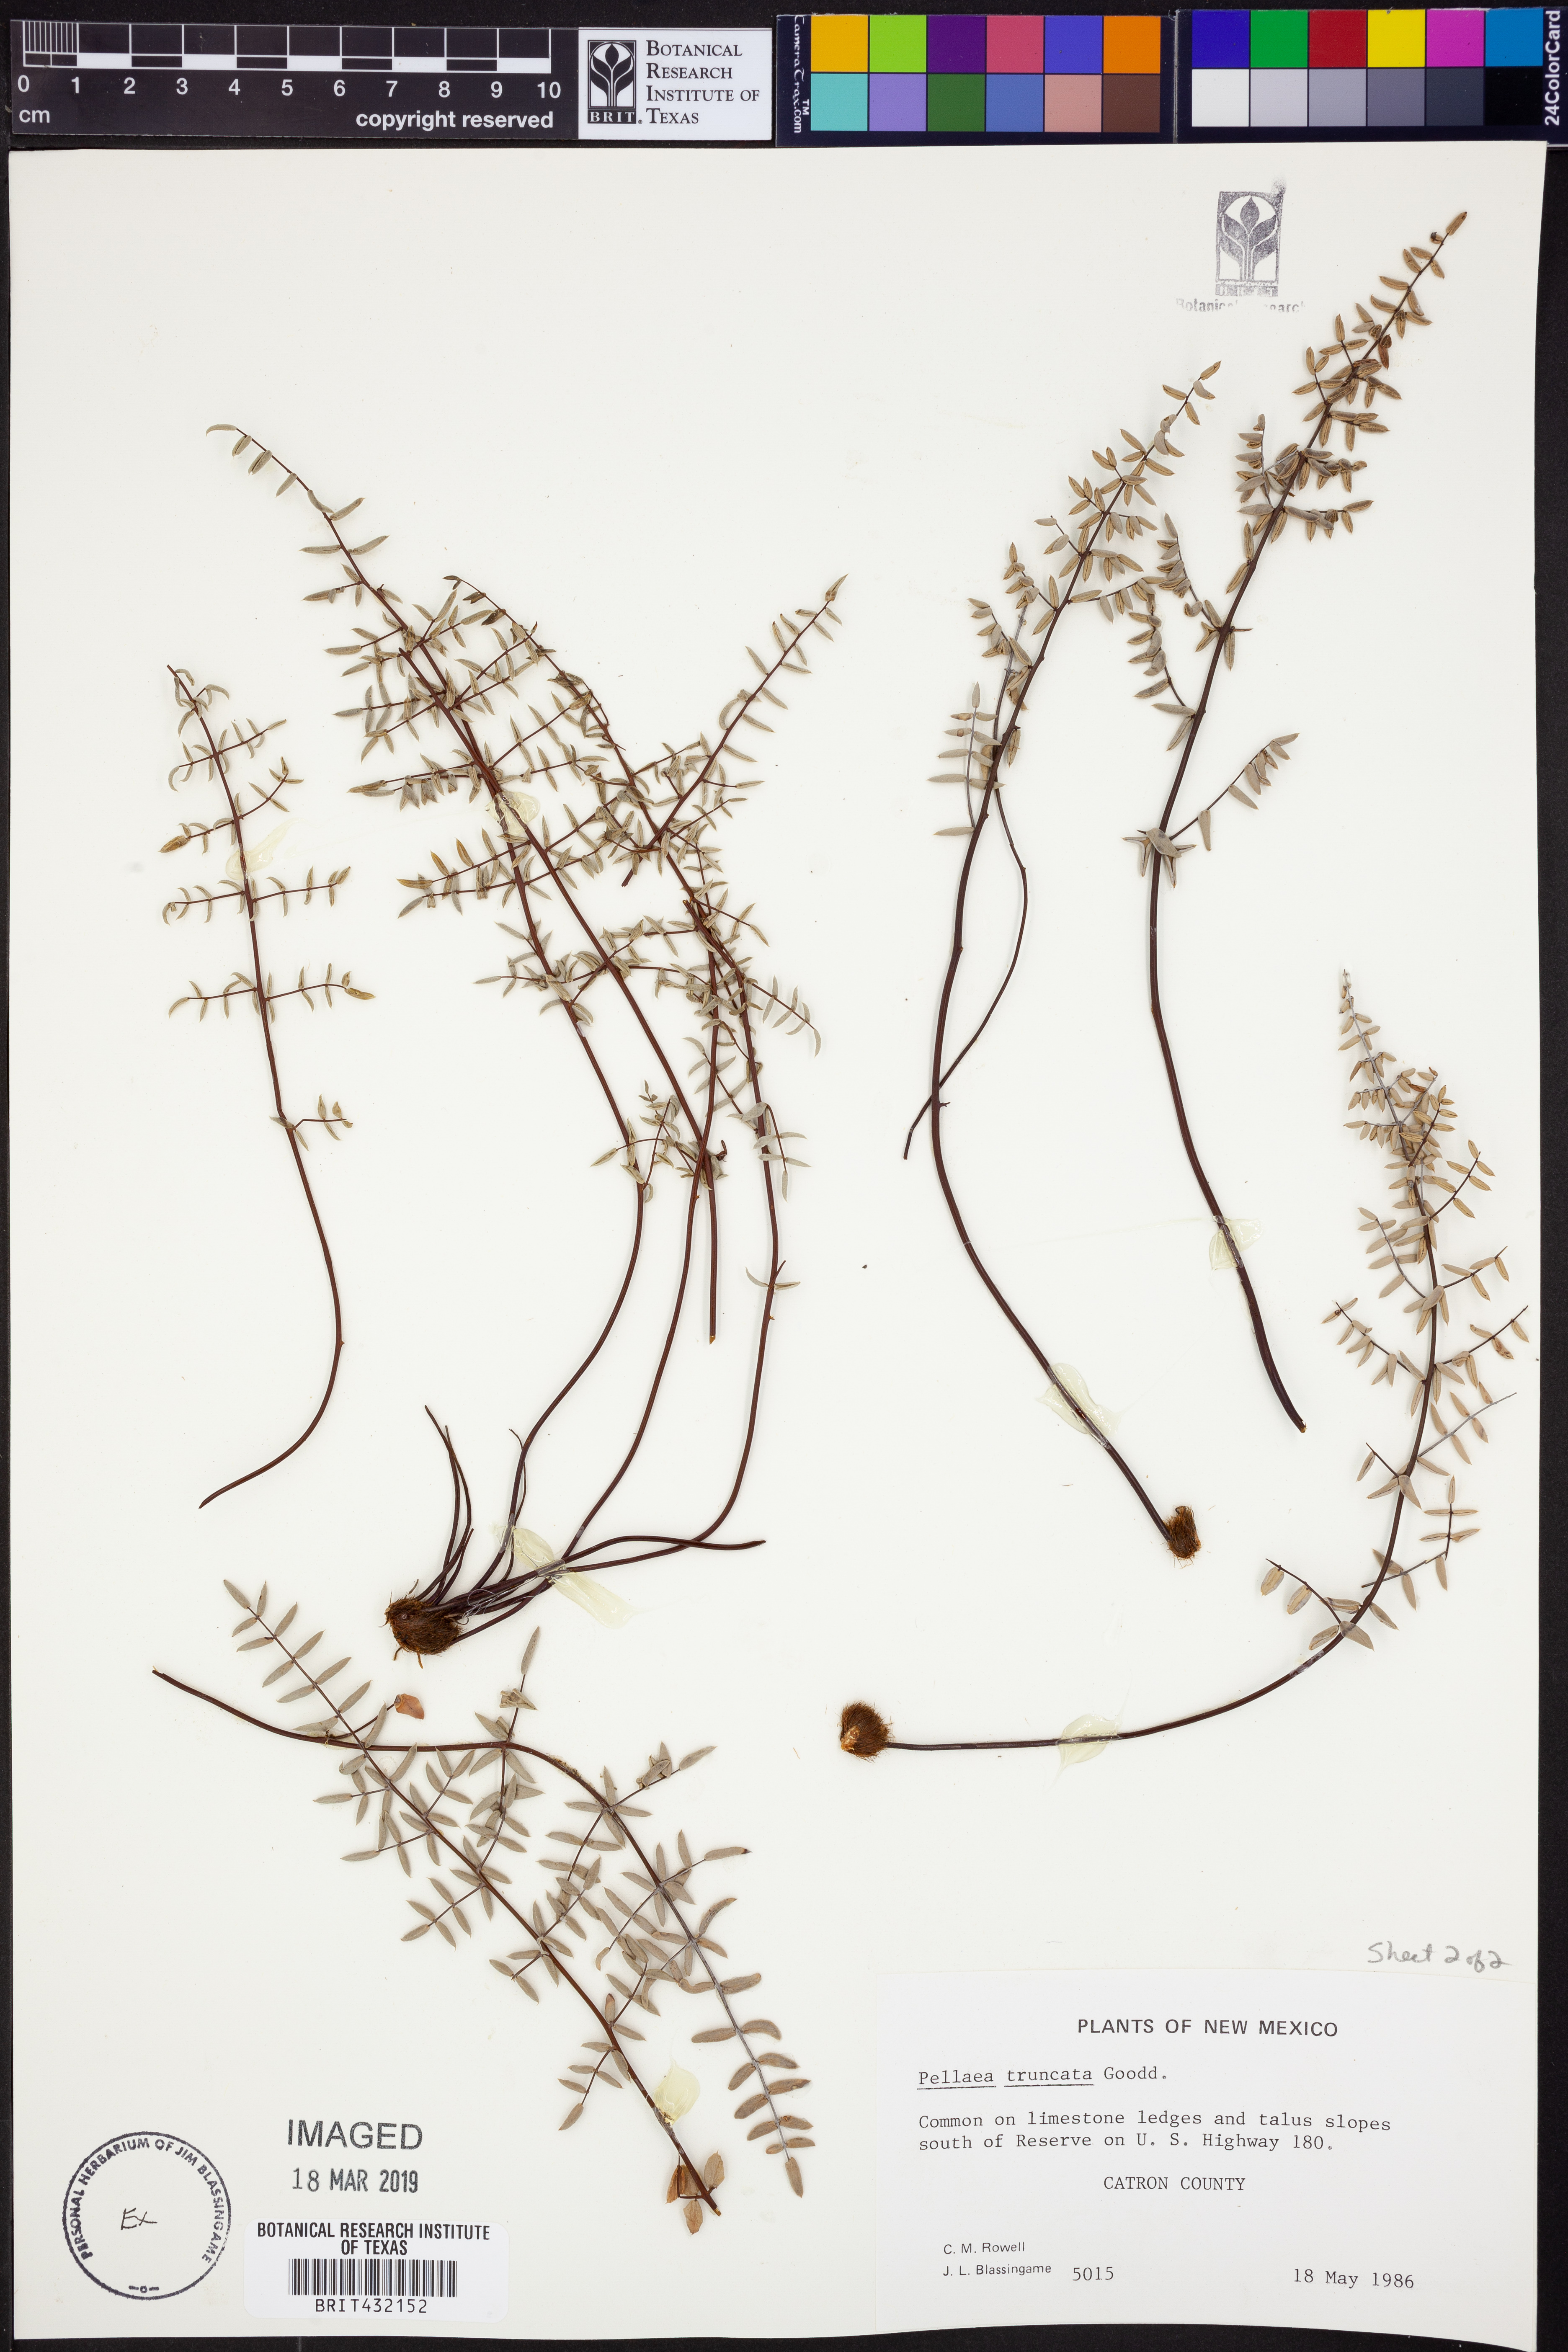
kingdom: Plantae
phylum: Tracheophyta
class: Polypodiopsida
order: Polypodiales
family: Pteridaceae
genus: Pellaea
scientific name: Pellaea truncata
